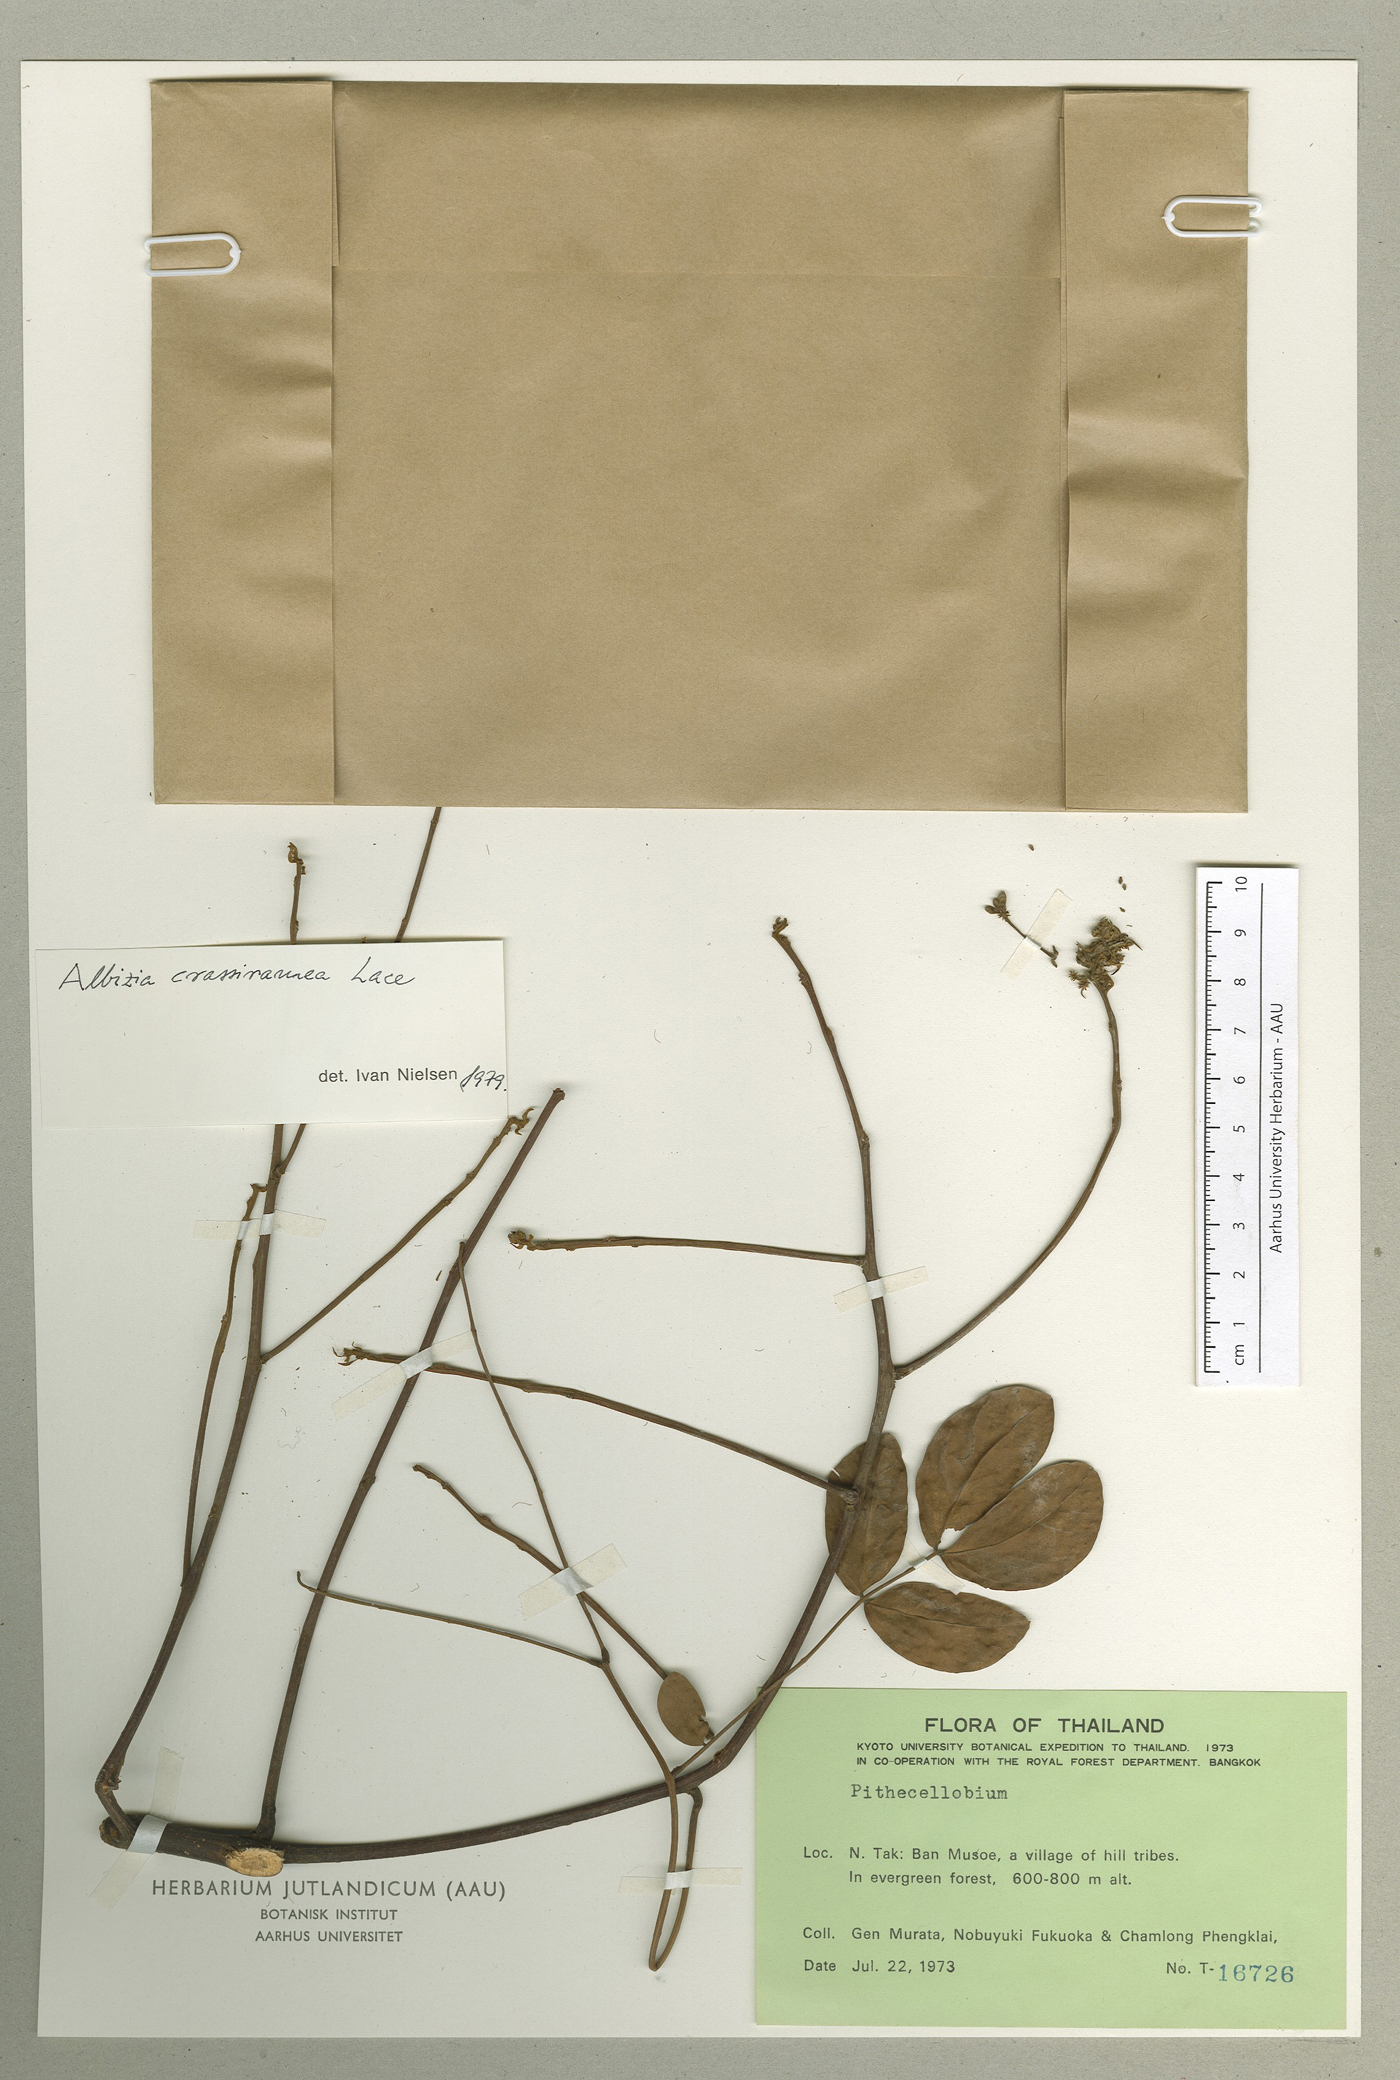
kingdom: Plantae
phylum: Tracheophyta
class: Magnoliopsida
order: Fabales
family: Fabaceae
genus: Albizia
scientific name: Albizia crassiramea
